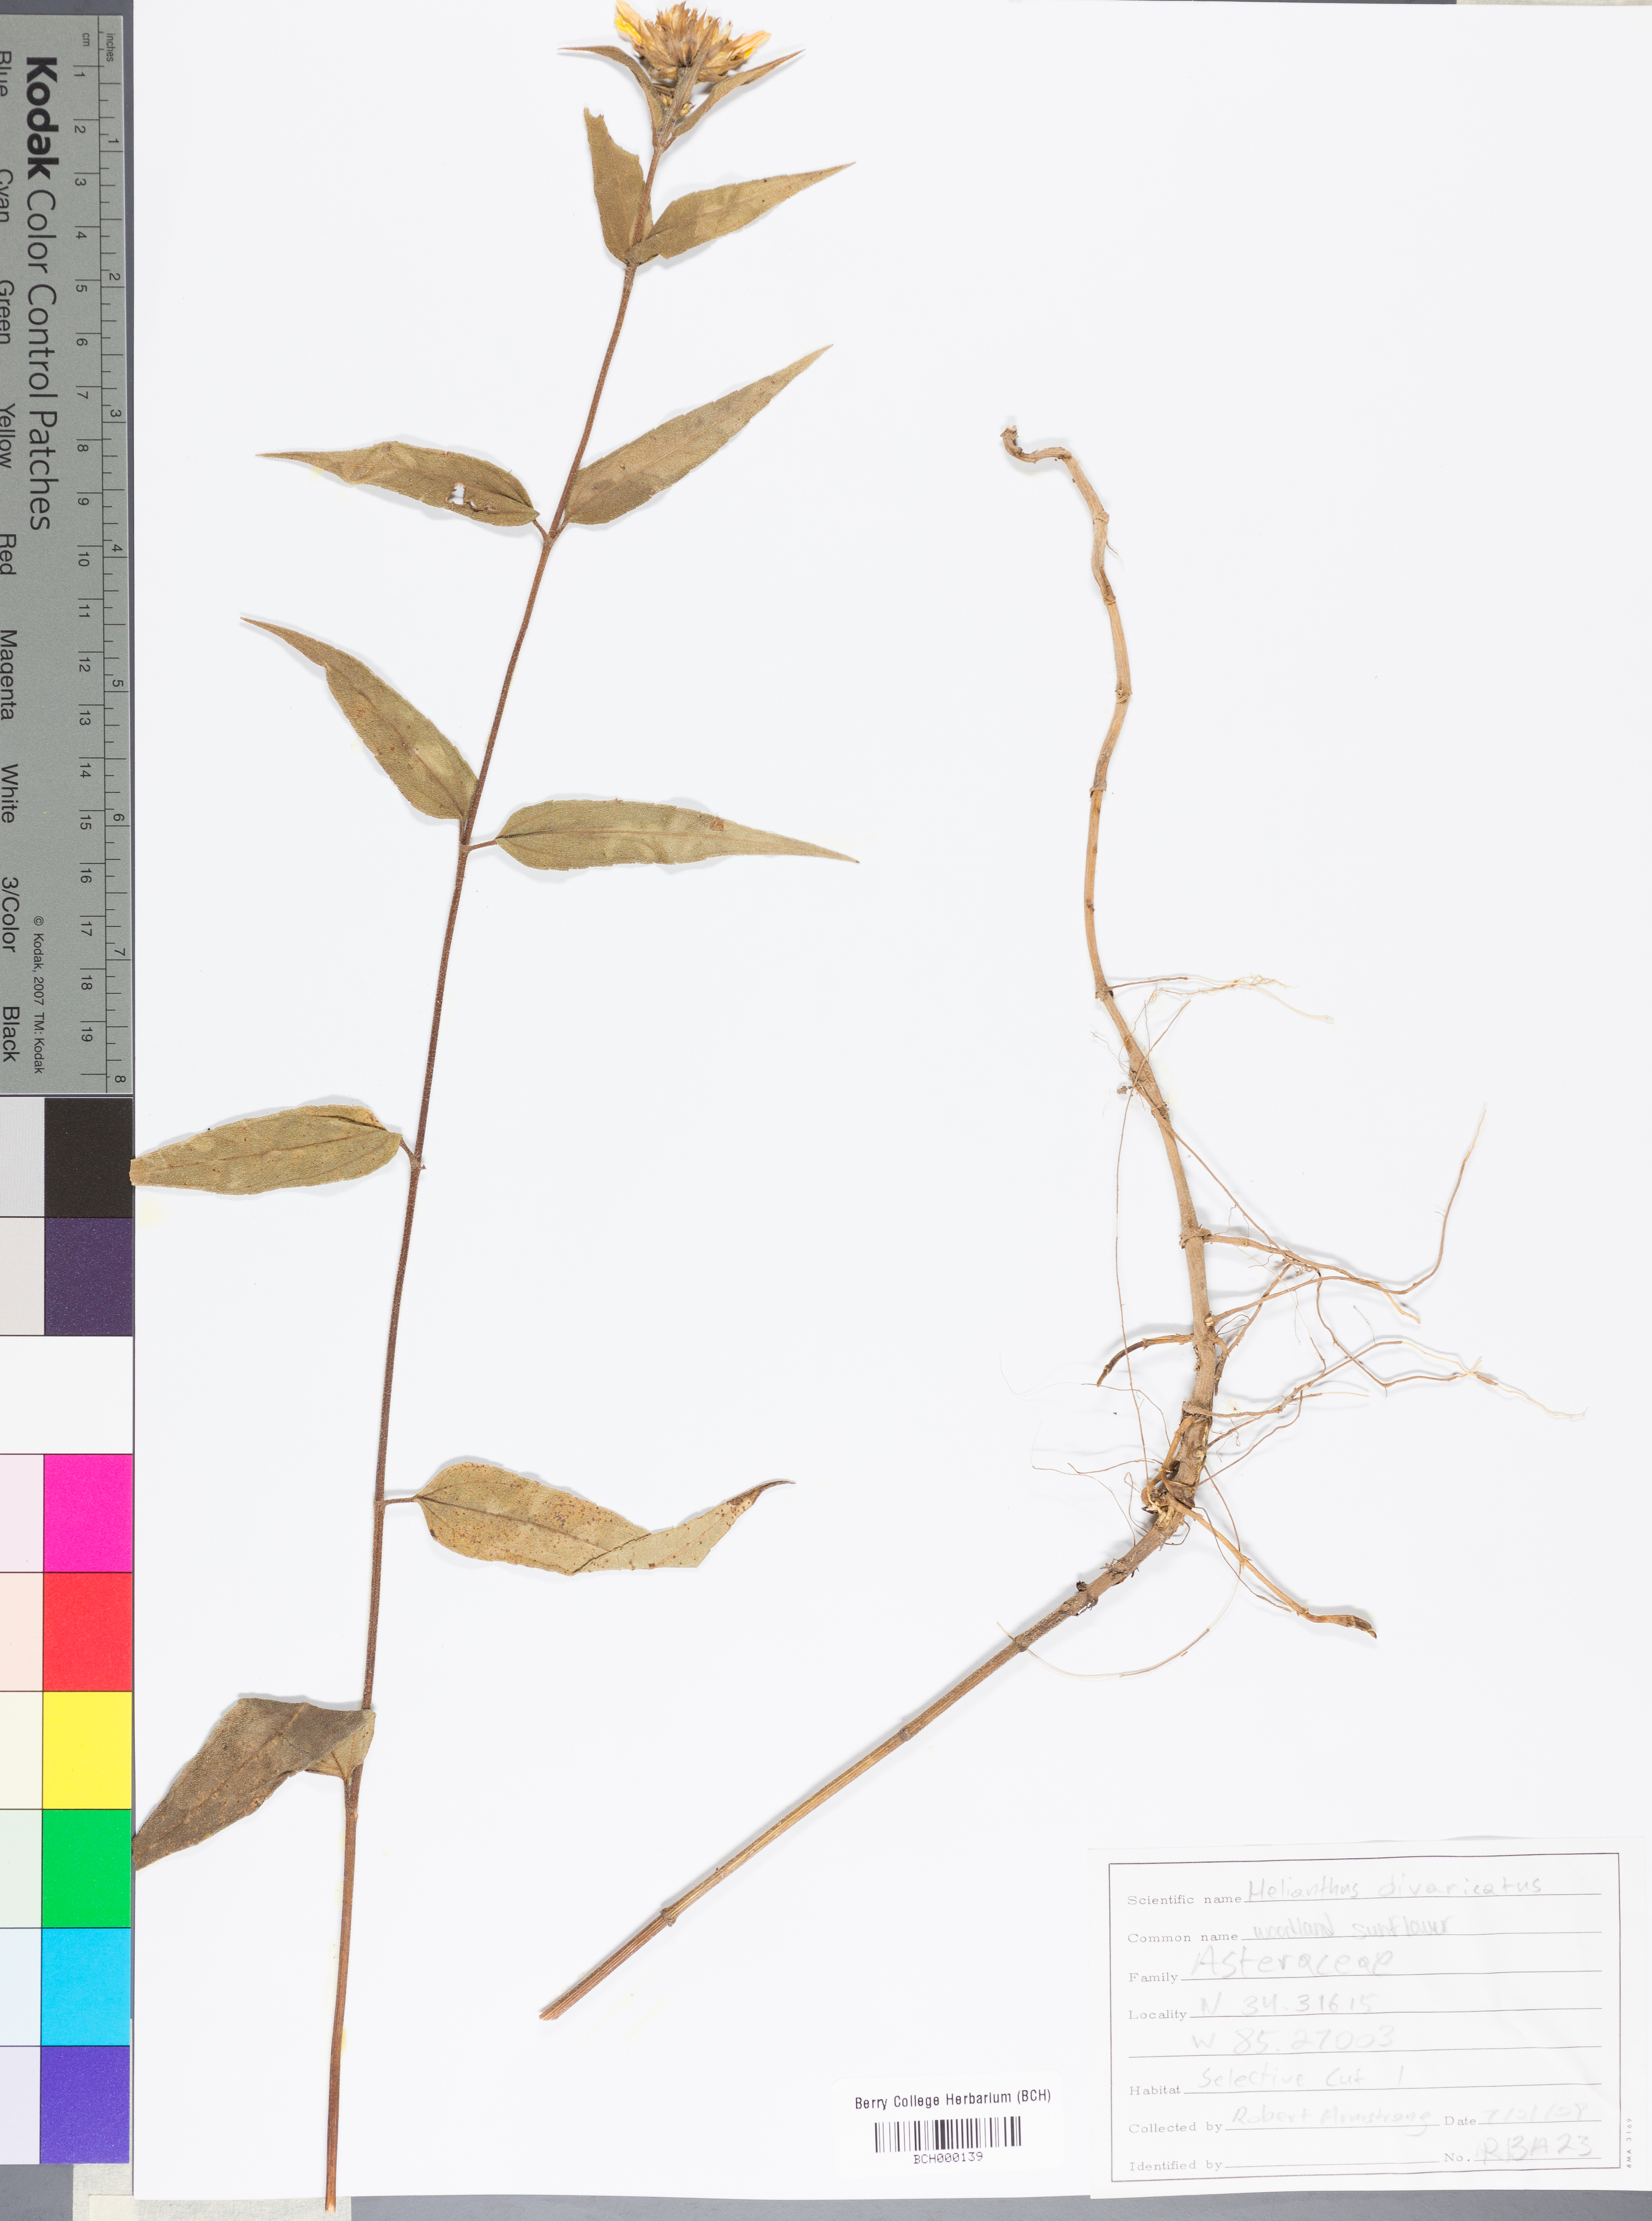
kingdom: Plantae
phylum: Tracheophyta
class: Magnoliopsida
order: Asterales
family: Asteraceae
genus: Helianthus
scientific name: Helianthus divaricatus
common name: Divergent sunflower
